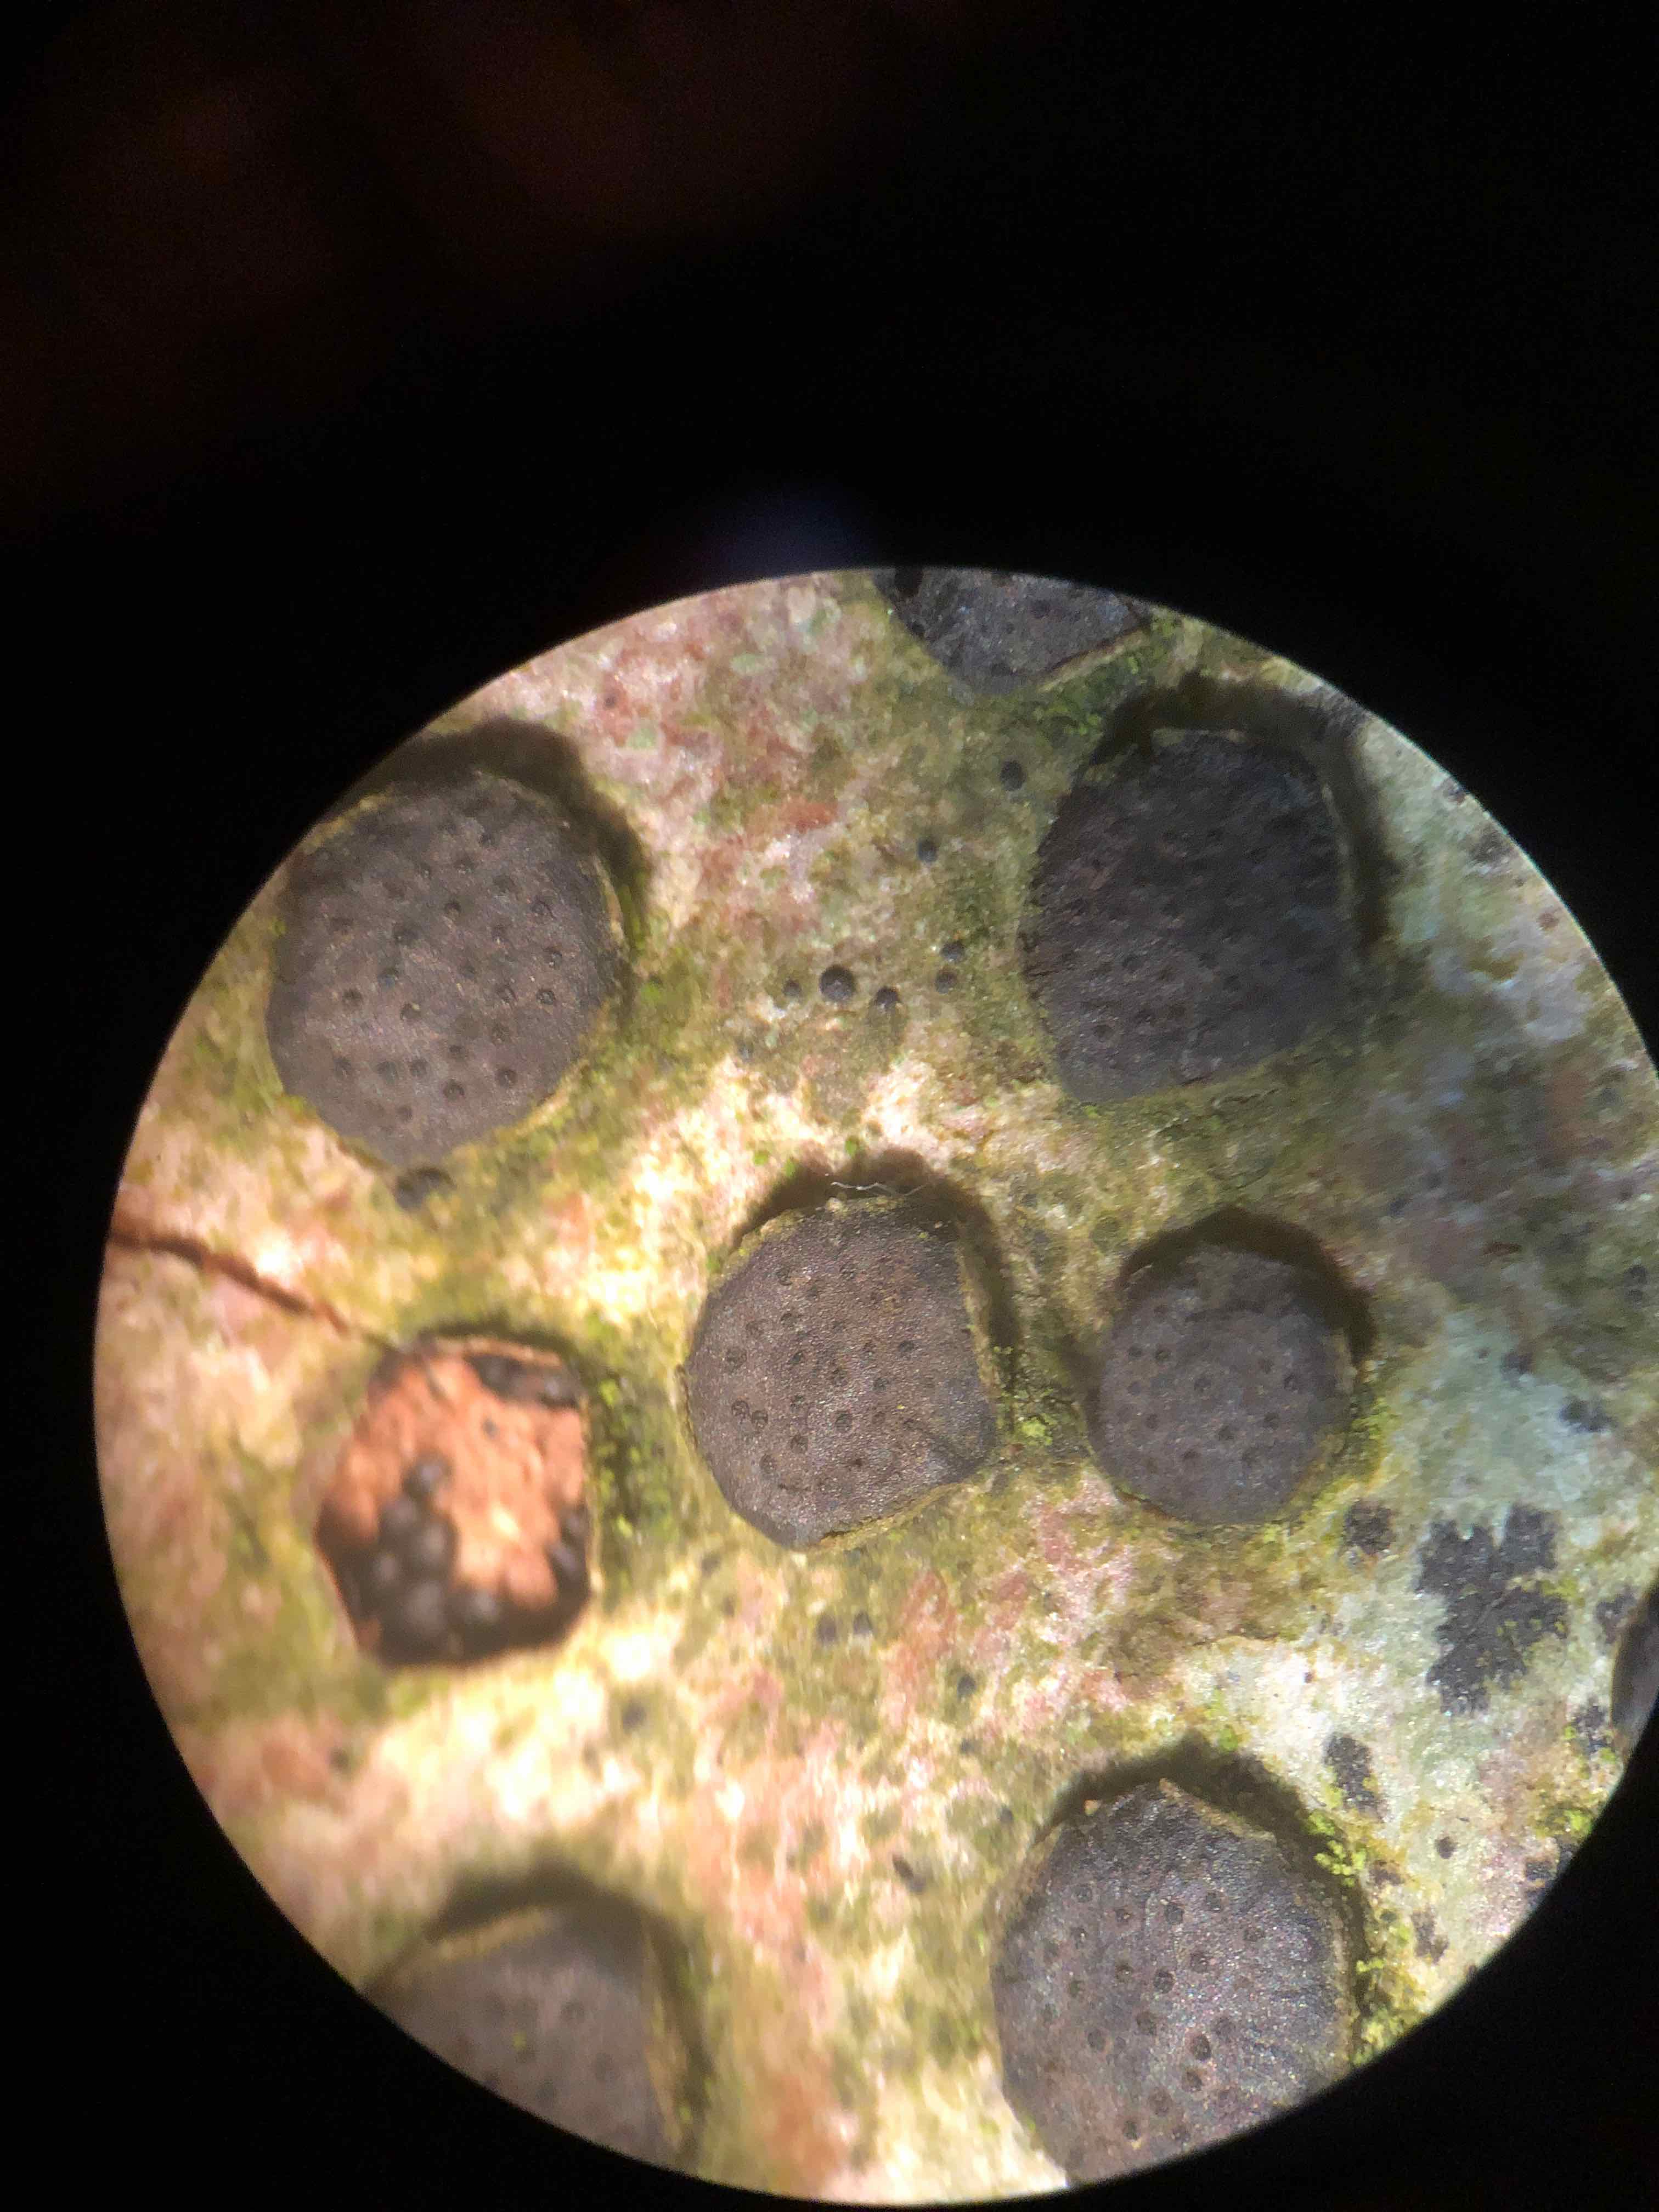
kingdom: Fungi
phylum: Ascomycota
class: Sordariomycetes
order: Xylariales
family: Diatrypaceae
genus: Diatrype
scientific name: Diatrype disciformis
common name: kant-kulskorpe
